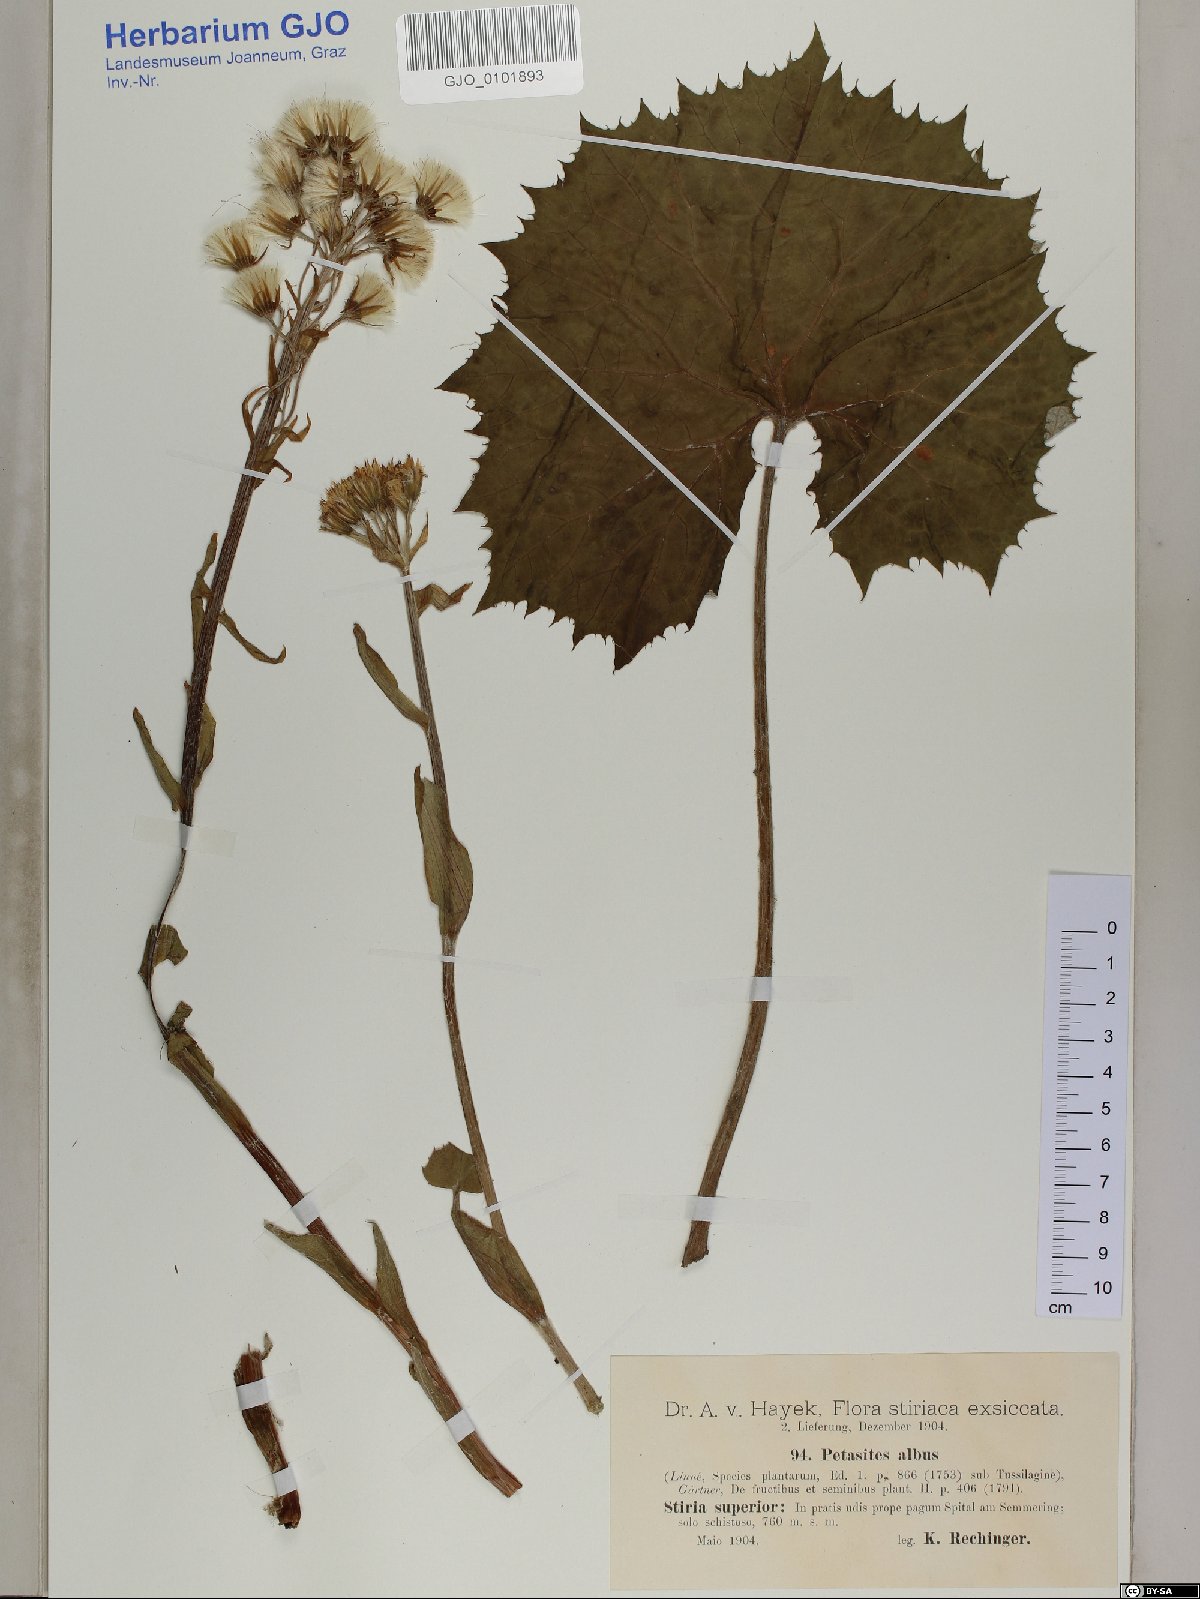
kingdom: Plantae
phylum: Tracheophyta
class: Magnoliopsida
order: Asterales
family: Asteraceae
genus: Petasites
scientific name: Petasites albus
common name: White butterbur
